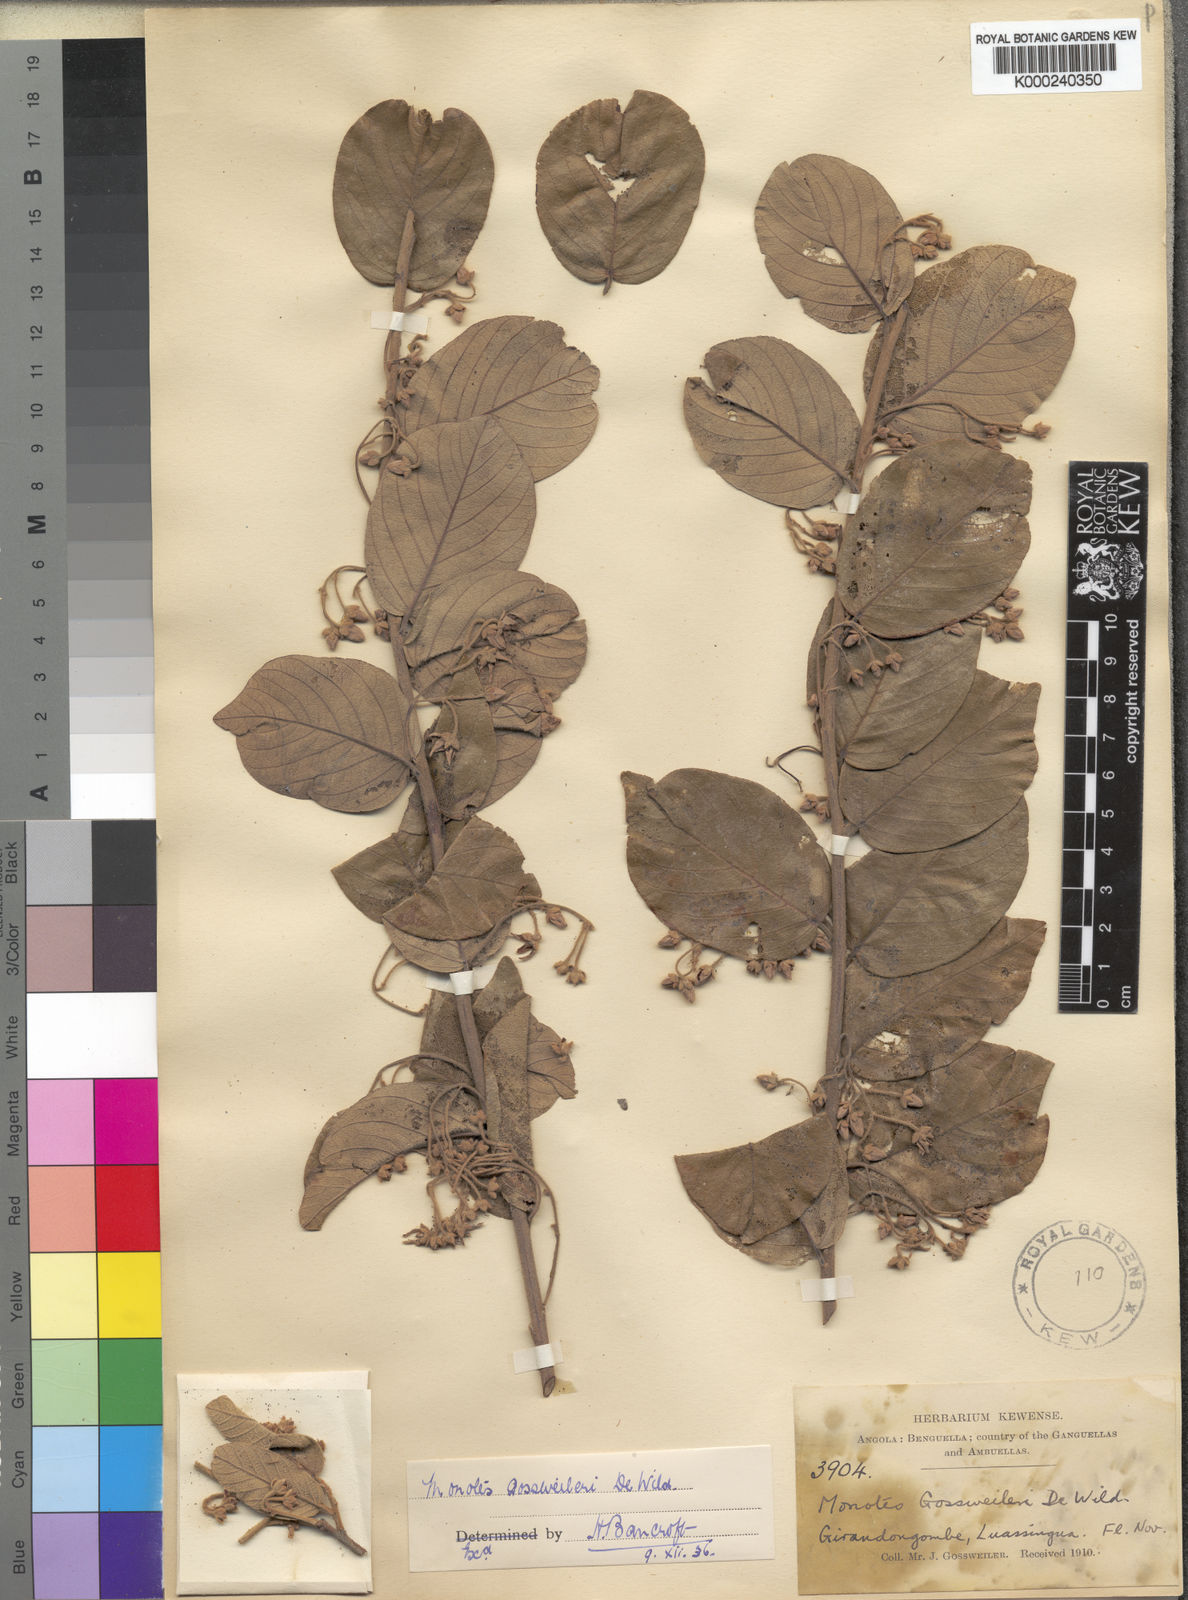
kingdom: Plantae
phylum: Tracheophyta
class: Magnoliopsida
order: Malvales
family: Dipterocarpaceae
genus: Monotes
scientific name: Monotes gossweileri
